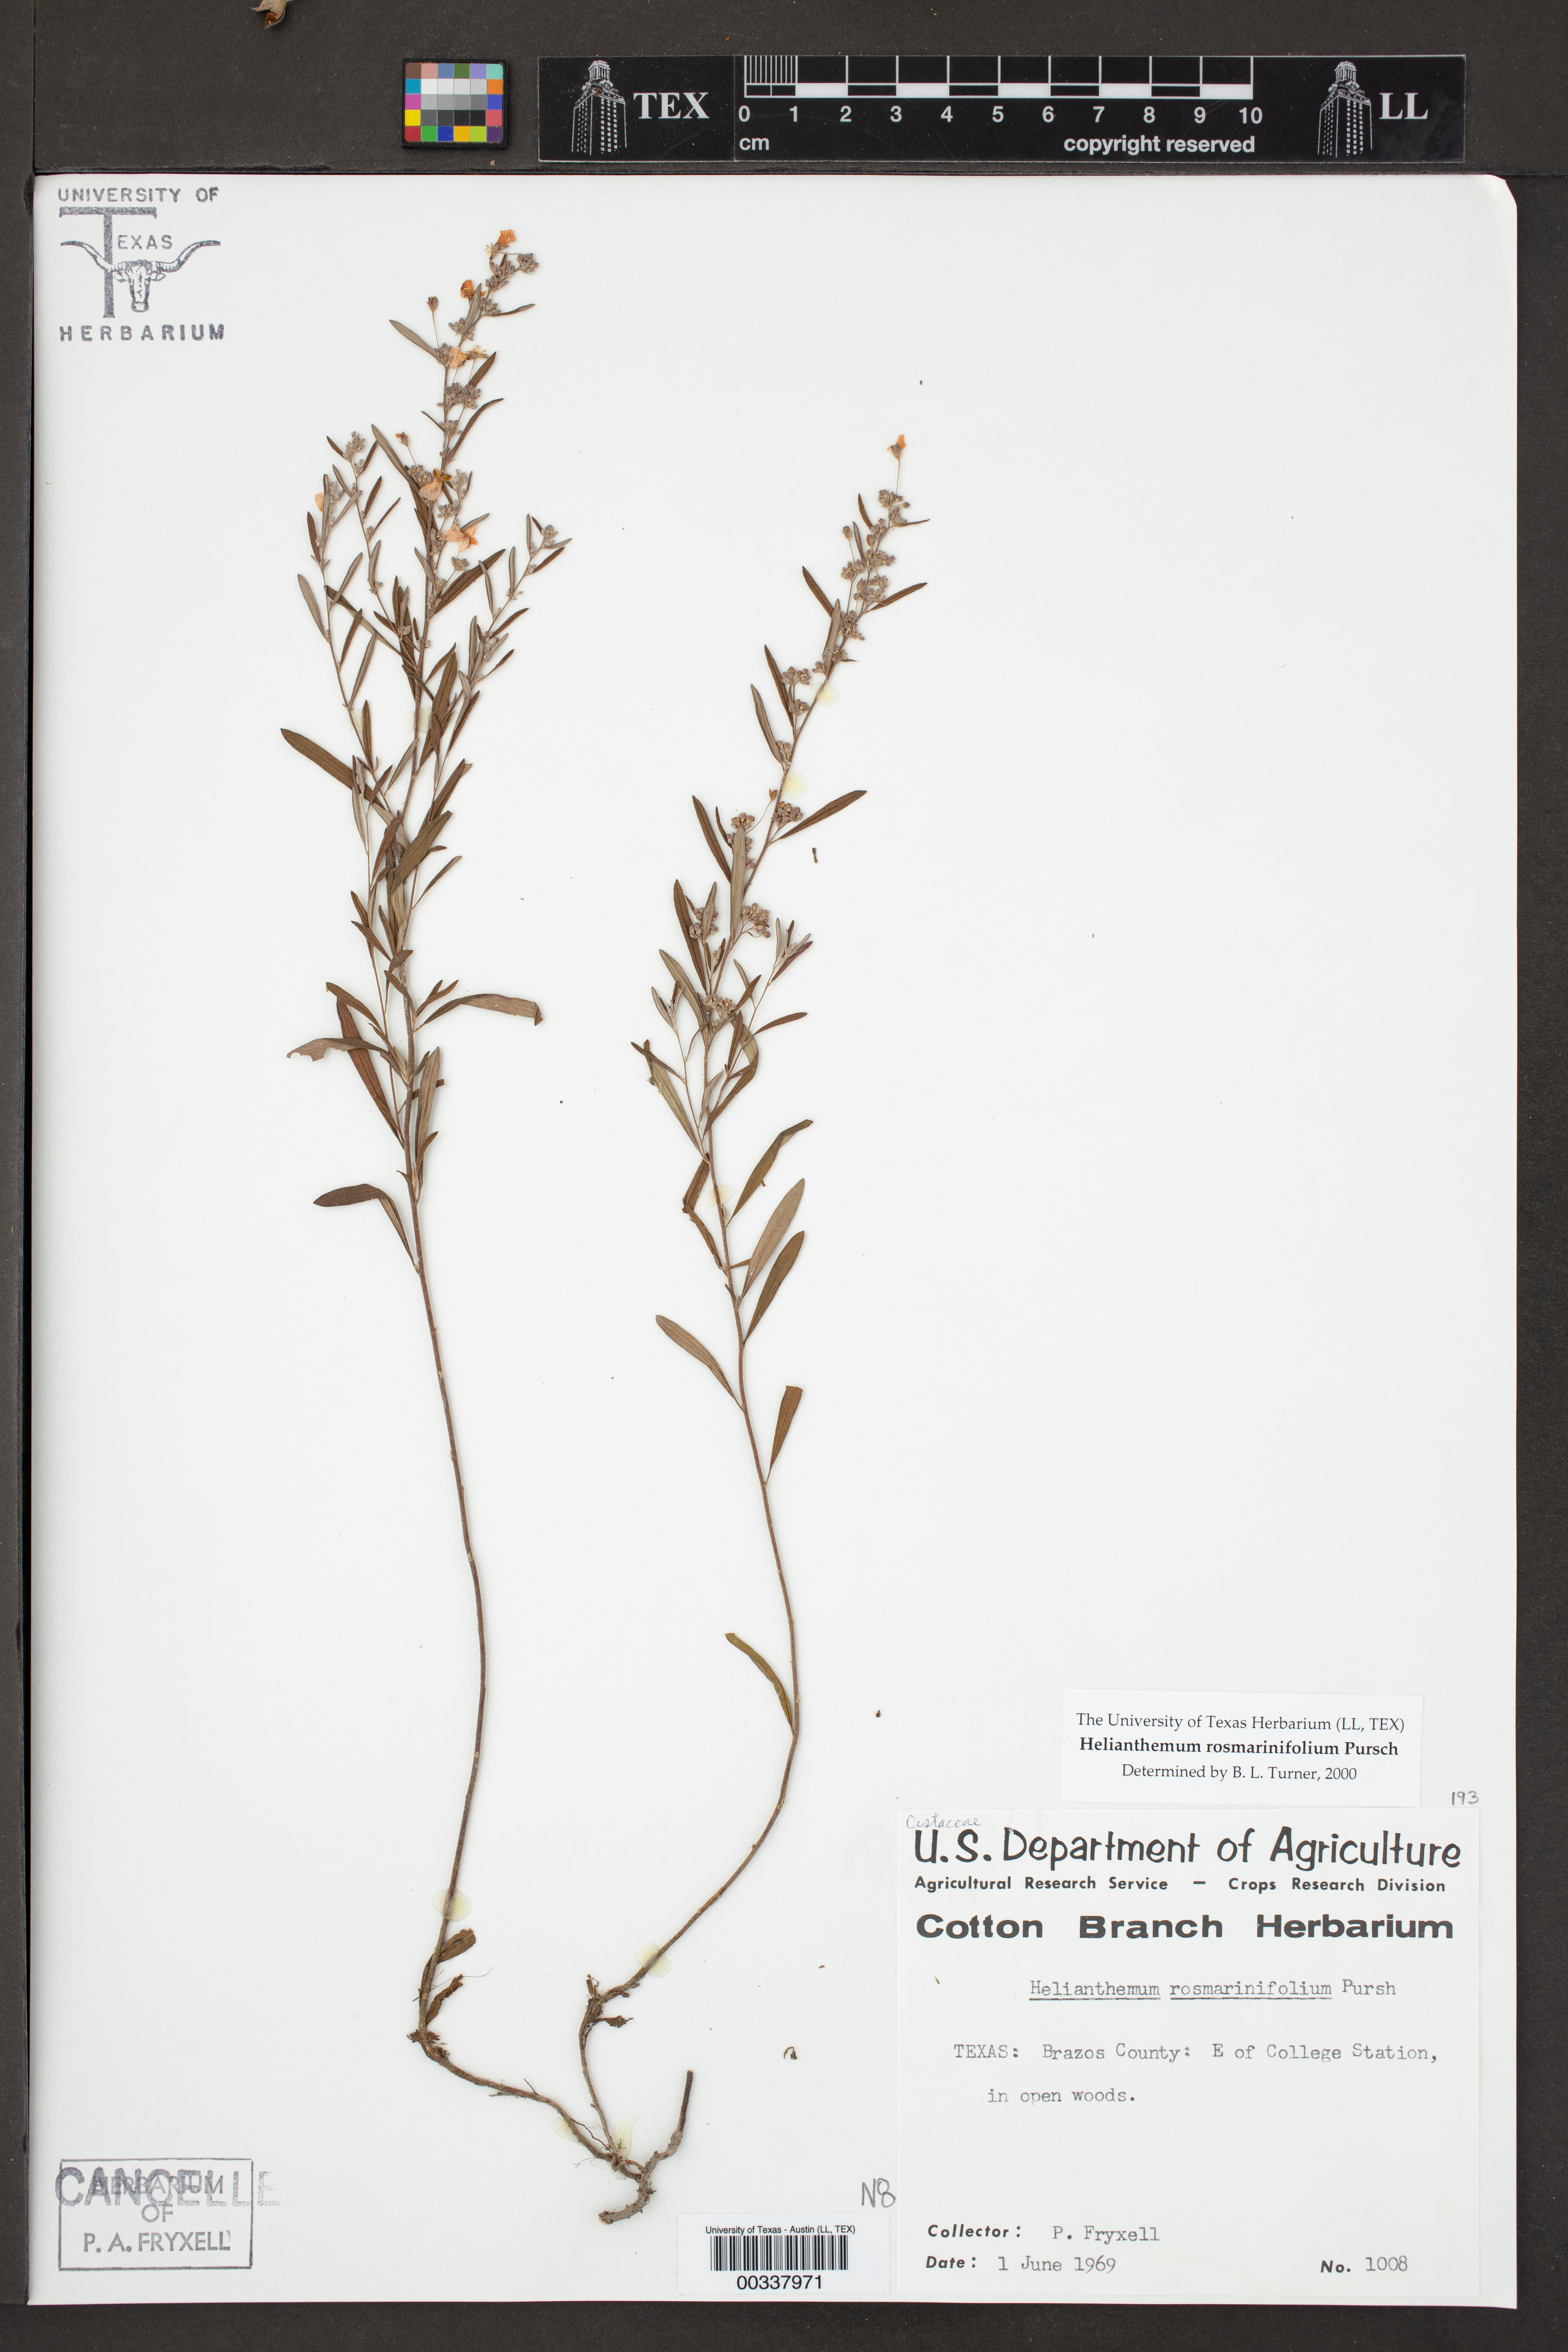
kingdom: Plantae
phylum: Tracheophyta
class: Magnoliopsida
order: Malvales
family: Cistaceae
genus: Helianthemum
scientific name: Helianthemum rosmarinifolium
